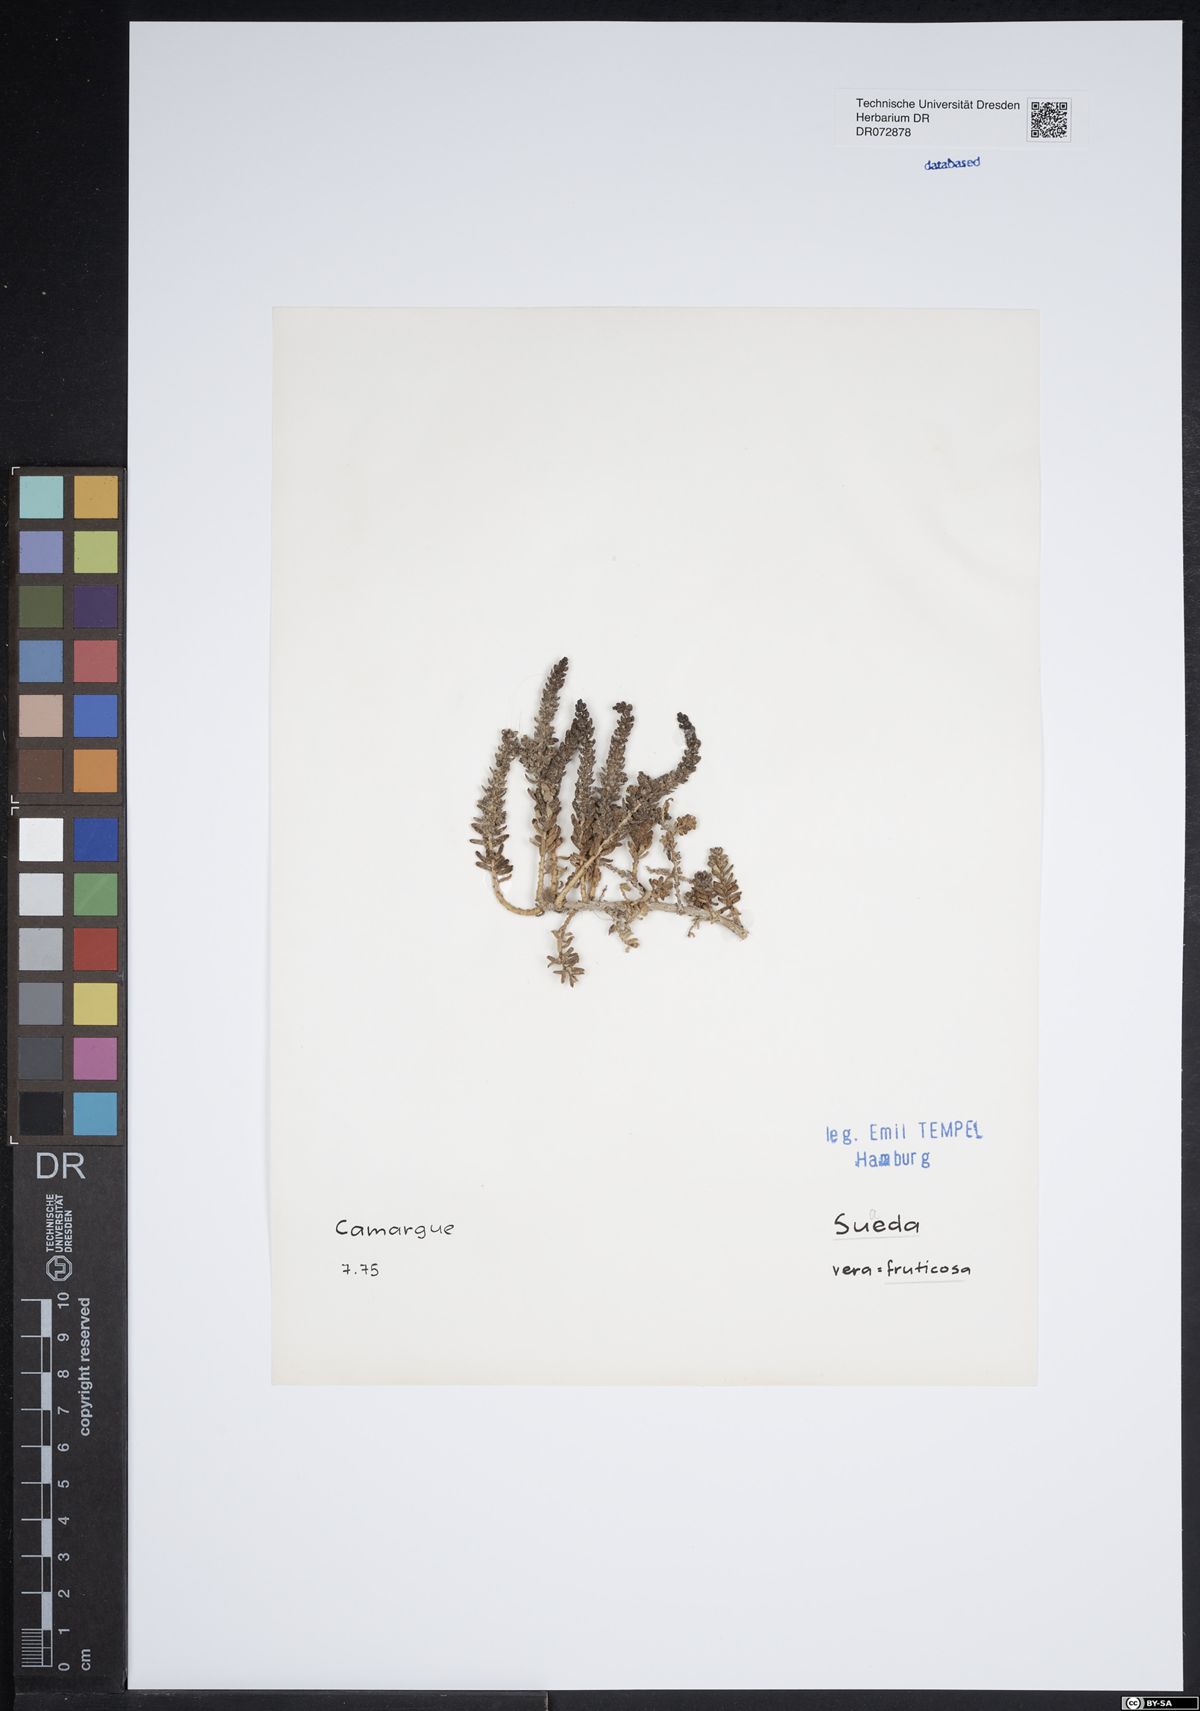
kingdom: Plantae
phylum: Tracheophyta
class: Magnoliopsida
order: Caryophyllales
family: Amaranthaceae
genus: Suaeda
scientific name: Suaeda fruticosa
